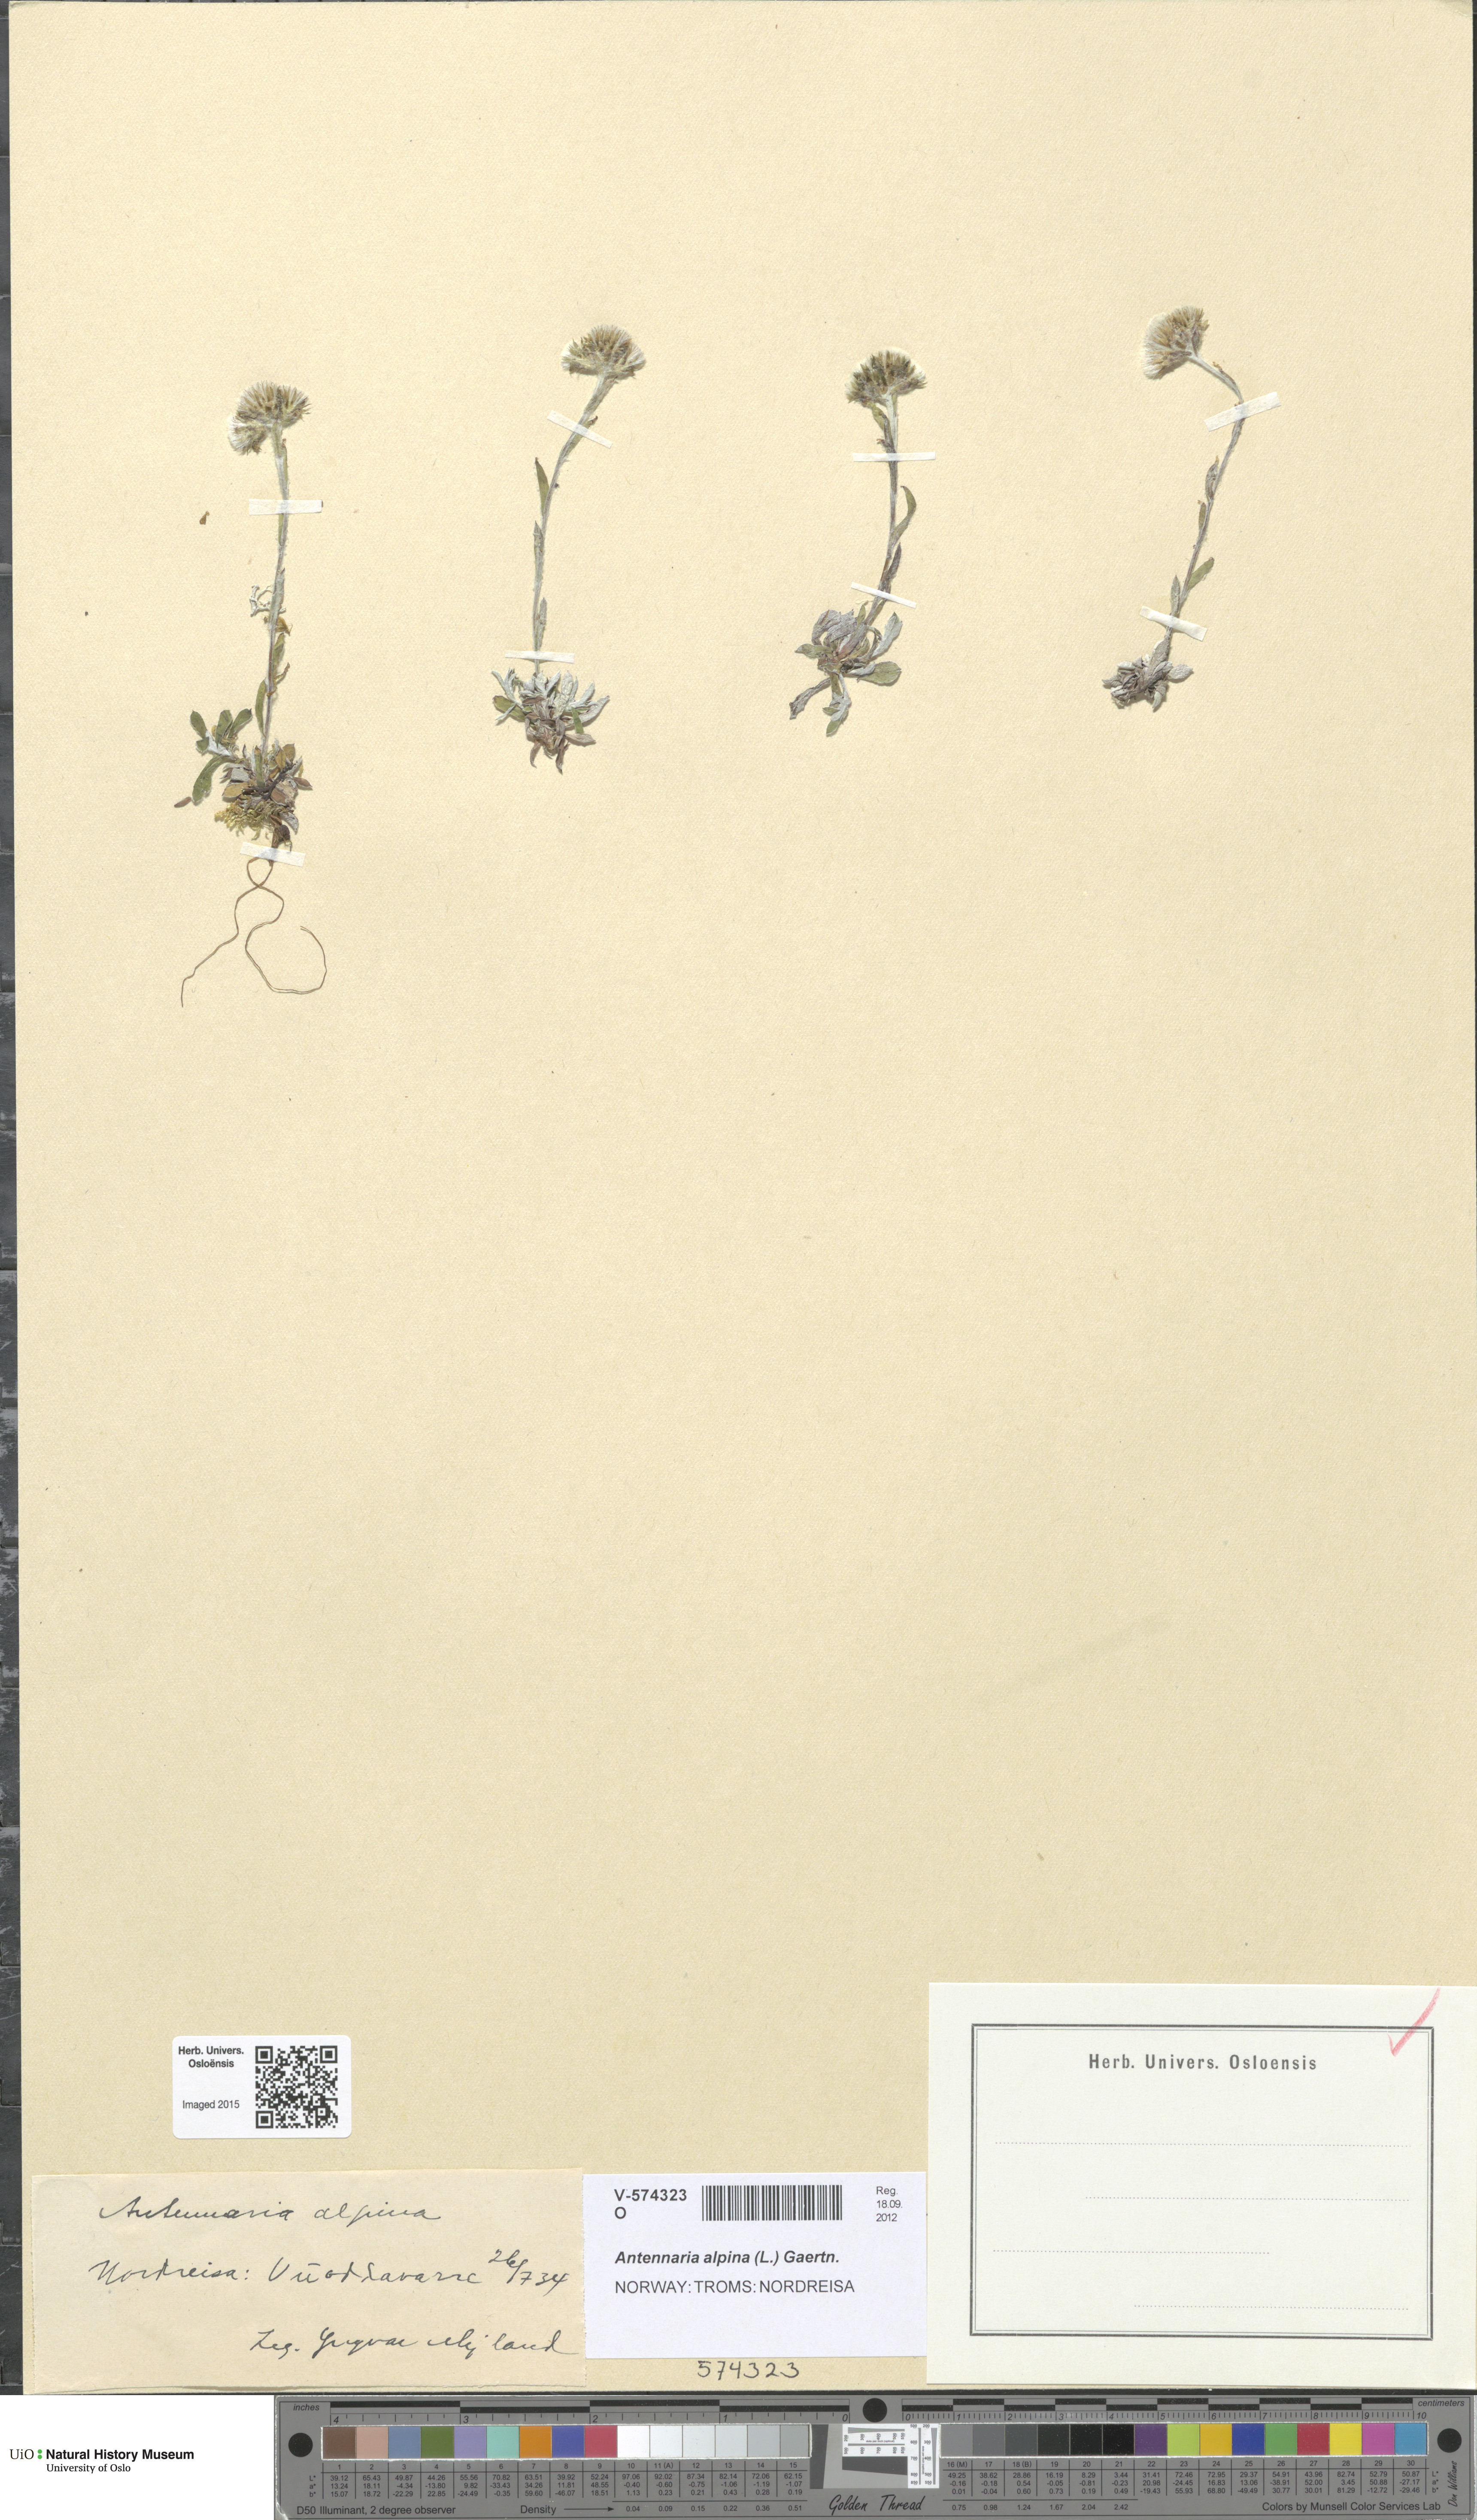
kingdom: Plantae
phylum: Tracheophyta
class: Magnoliopsida
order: Asterales
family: Asteraceae
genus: Antennaria
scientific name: Antennaria alpina
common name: Alpine pussytoes
